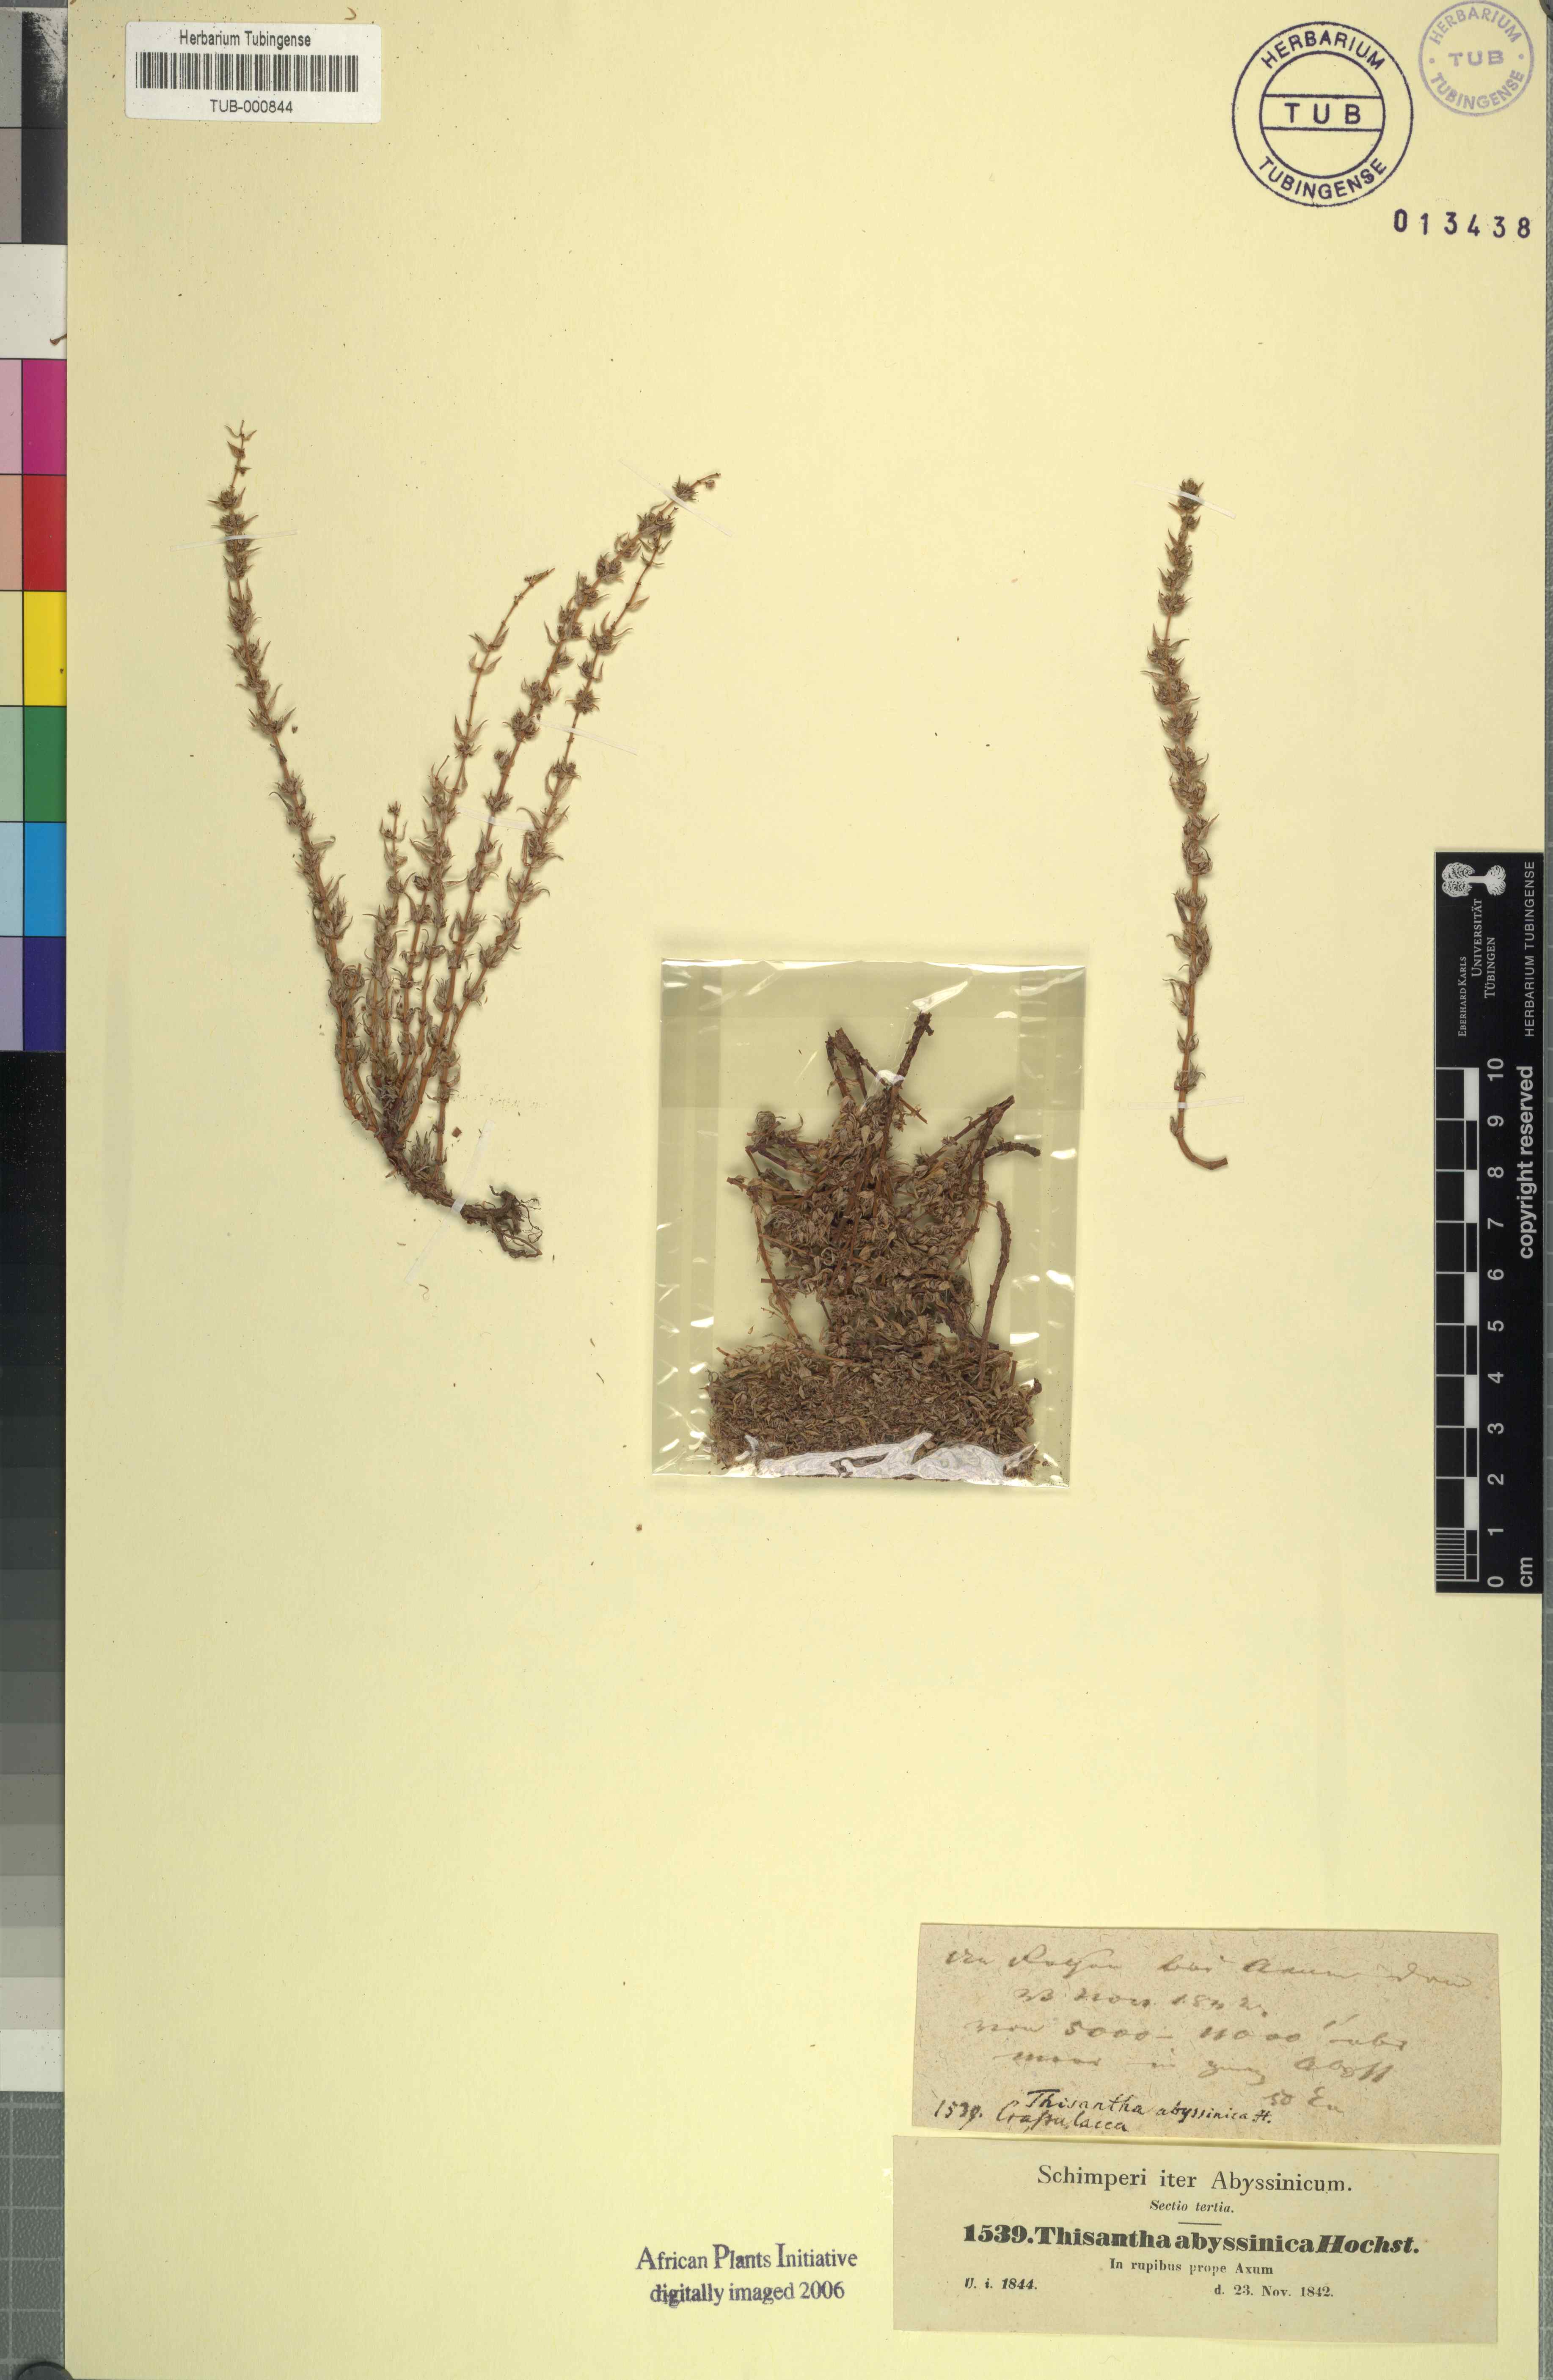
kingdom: Plantae
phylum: Tracheophyta
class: Magnoliopsida
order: Saxifragales
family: Crassulaceae
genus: Crassula
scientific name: Crassula alba
